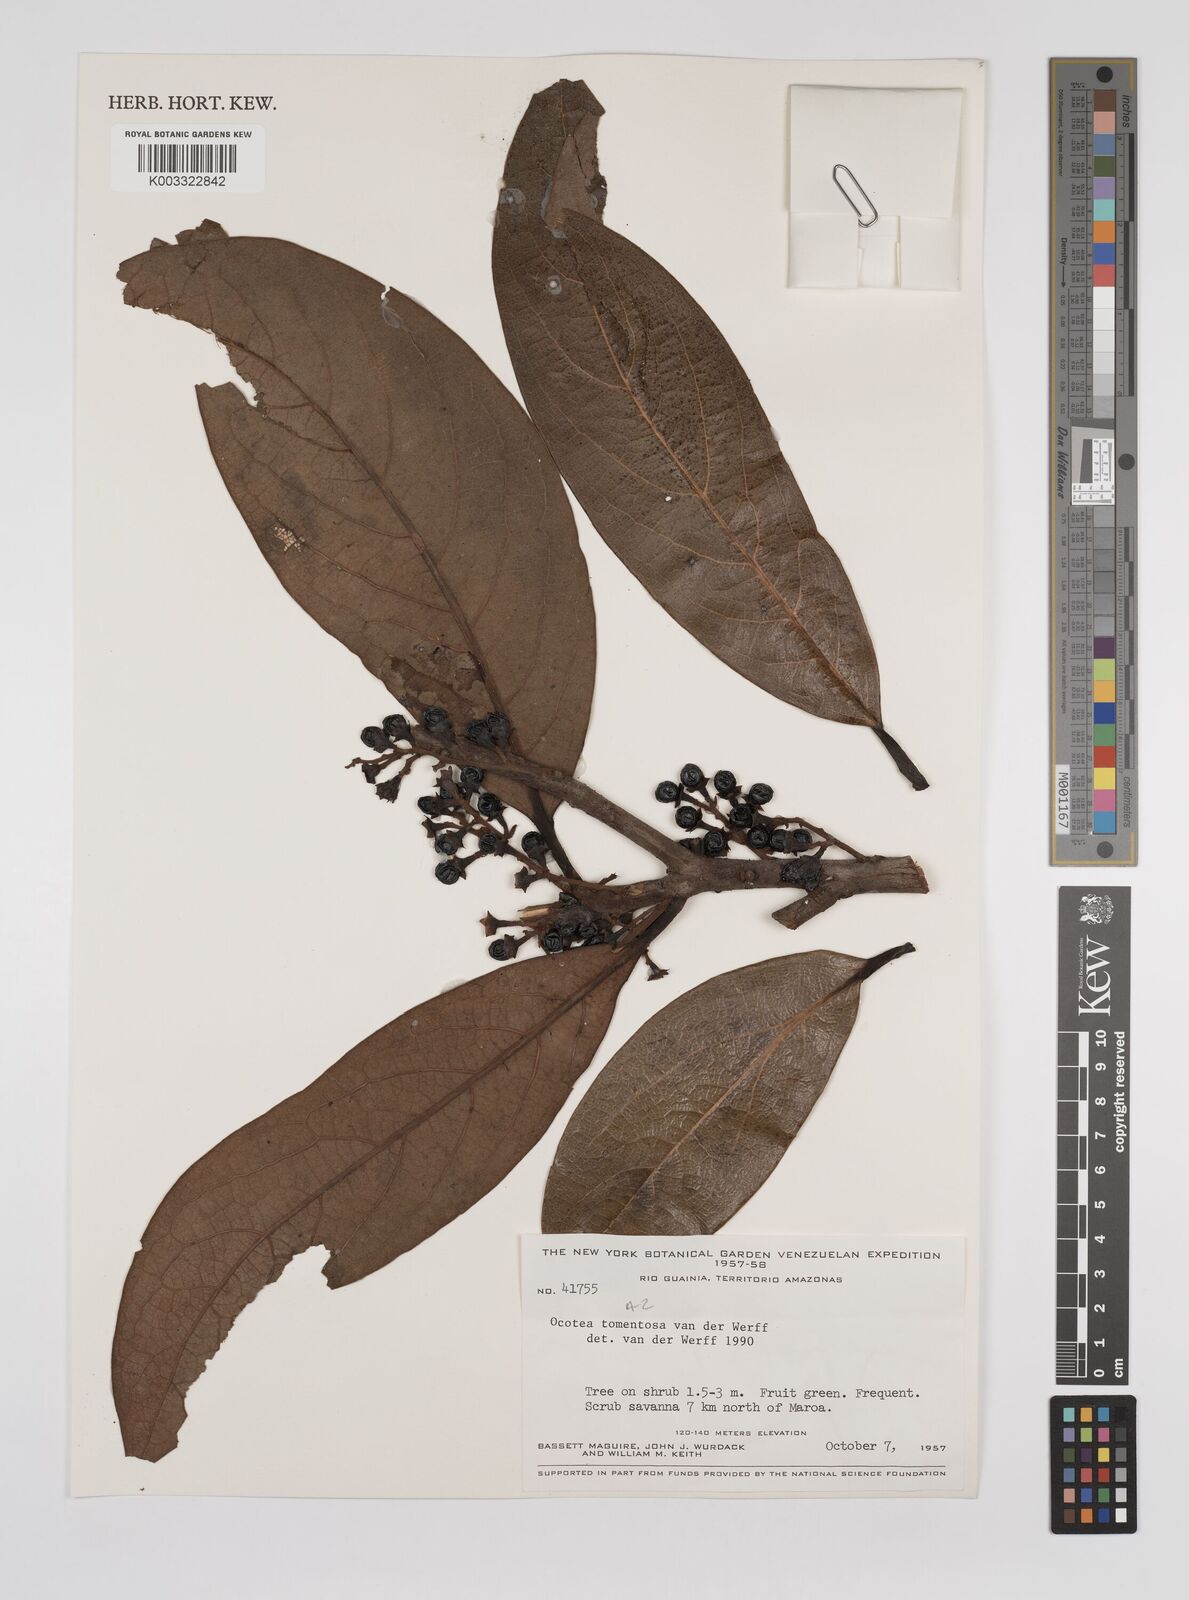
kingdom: Plantae
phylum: Tracheophyta
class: Magnoliopsida
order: Laurales
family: Lauraceae
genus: Ocotea
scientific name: Ocotea tomentosa
